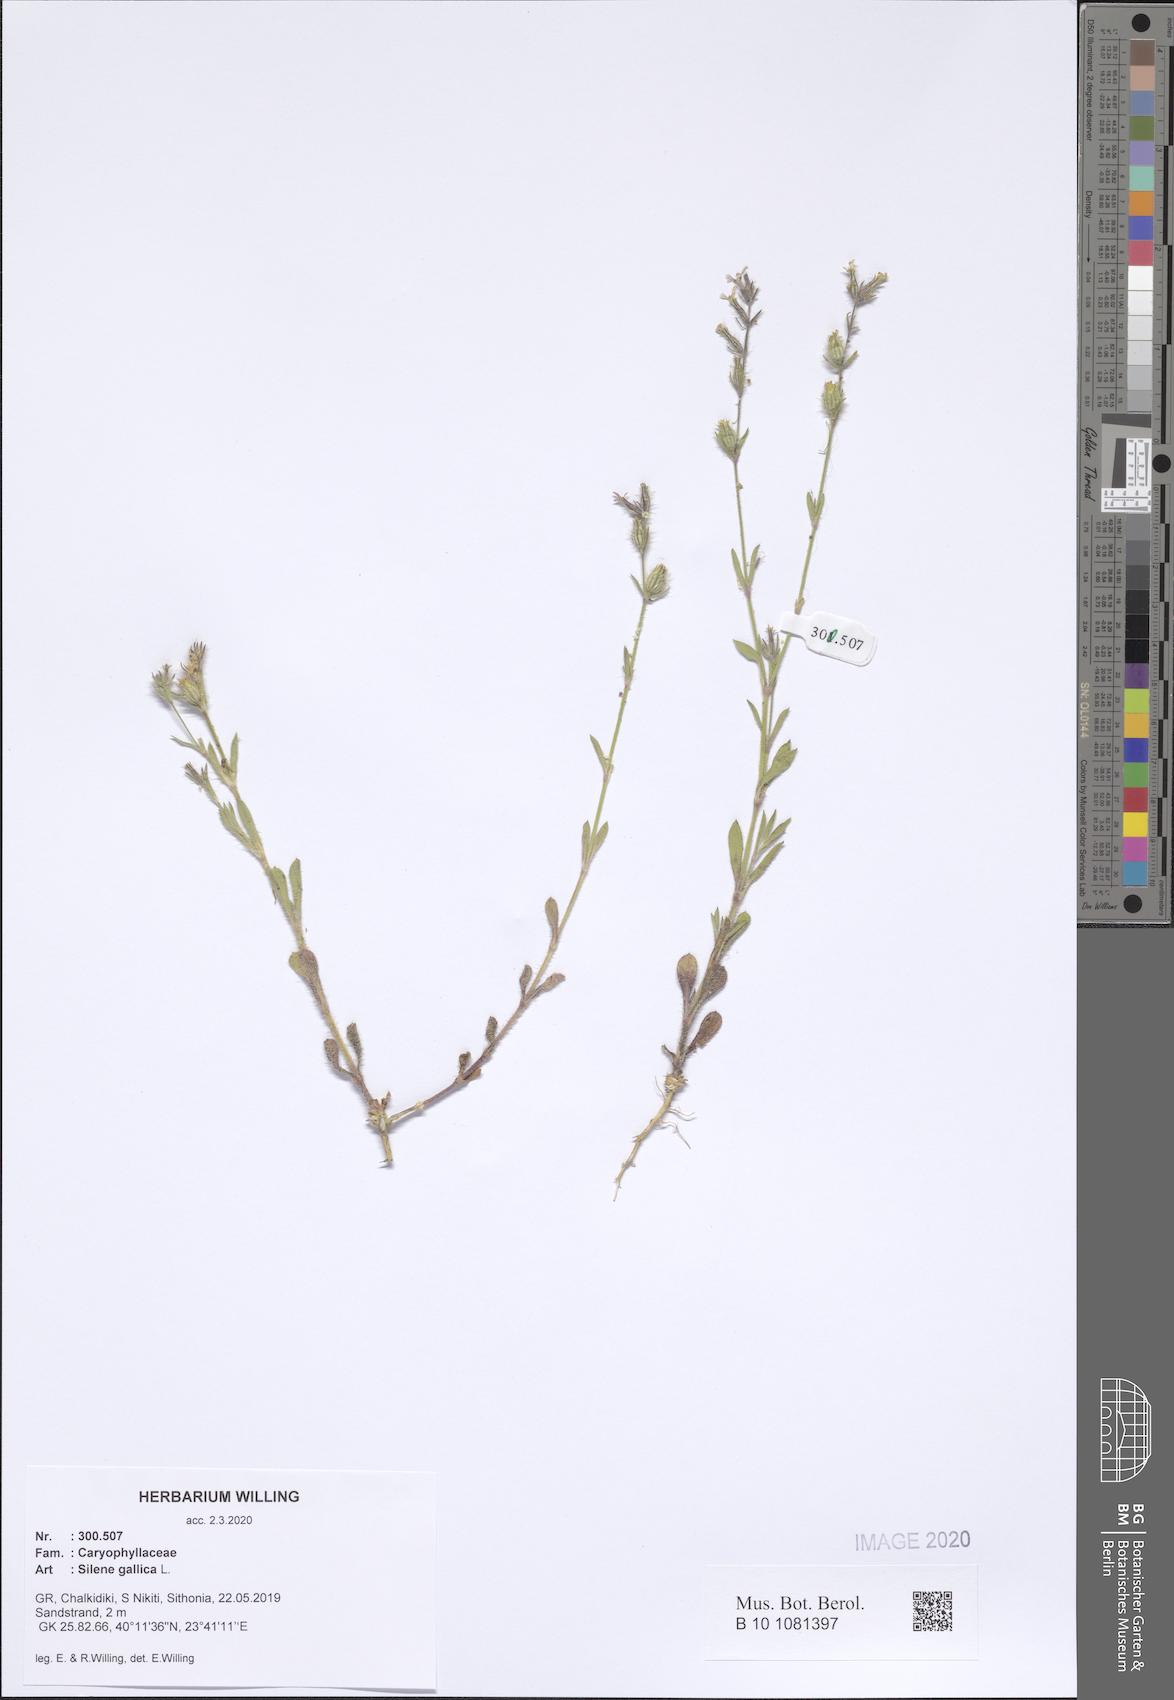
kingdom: Plantae
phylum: Tracheophyta
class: Magnoliopsida
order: Caryophyllales
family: Caryophyllaceae
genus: Silene
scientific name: Silene gallica
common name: Small-flowered catchfly
